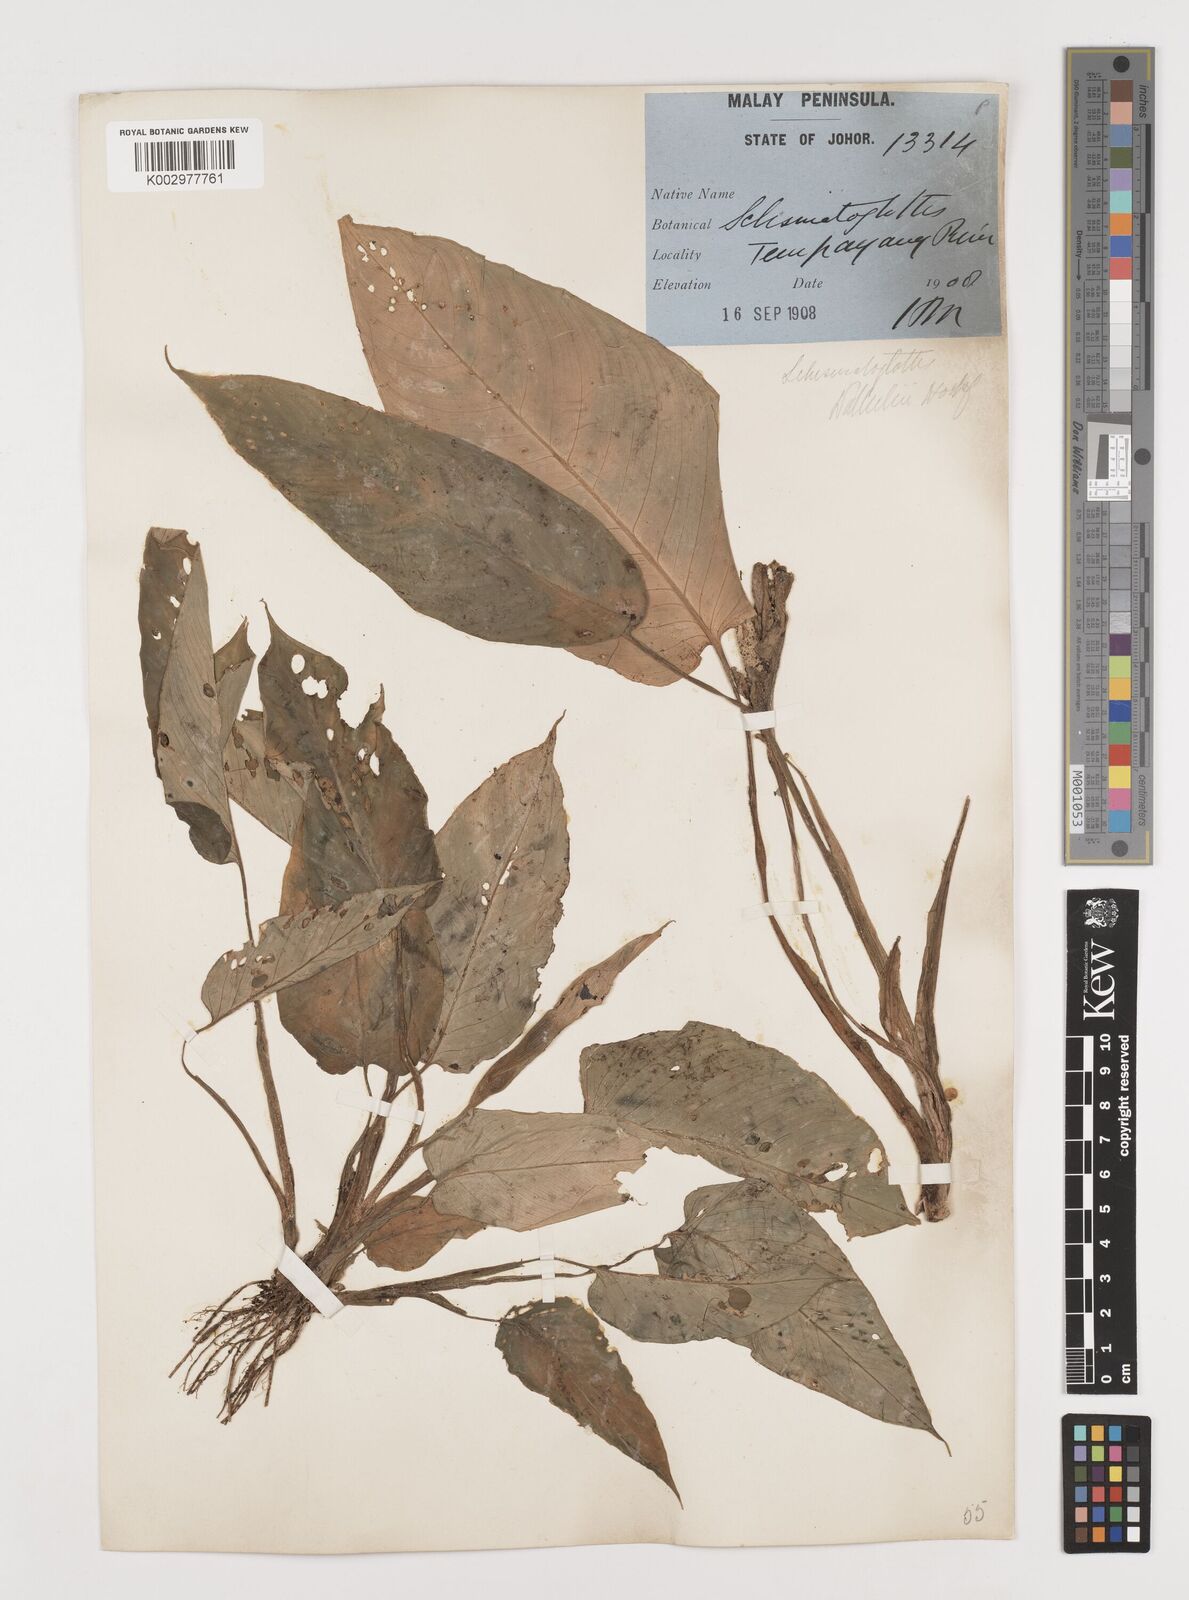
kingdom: Plantae
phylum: Tracheophyta
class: Liliopsida
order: Alismatales
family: Araceae
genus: Schismatoglottis
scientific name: Schismatoglottis wallichii
